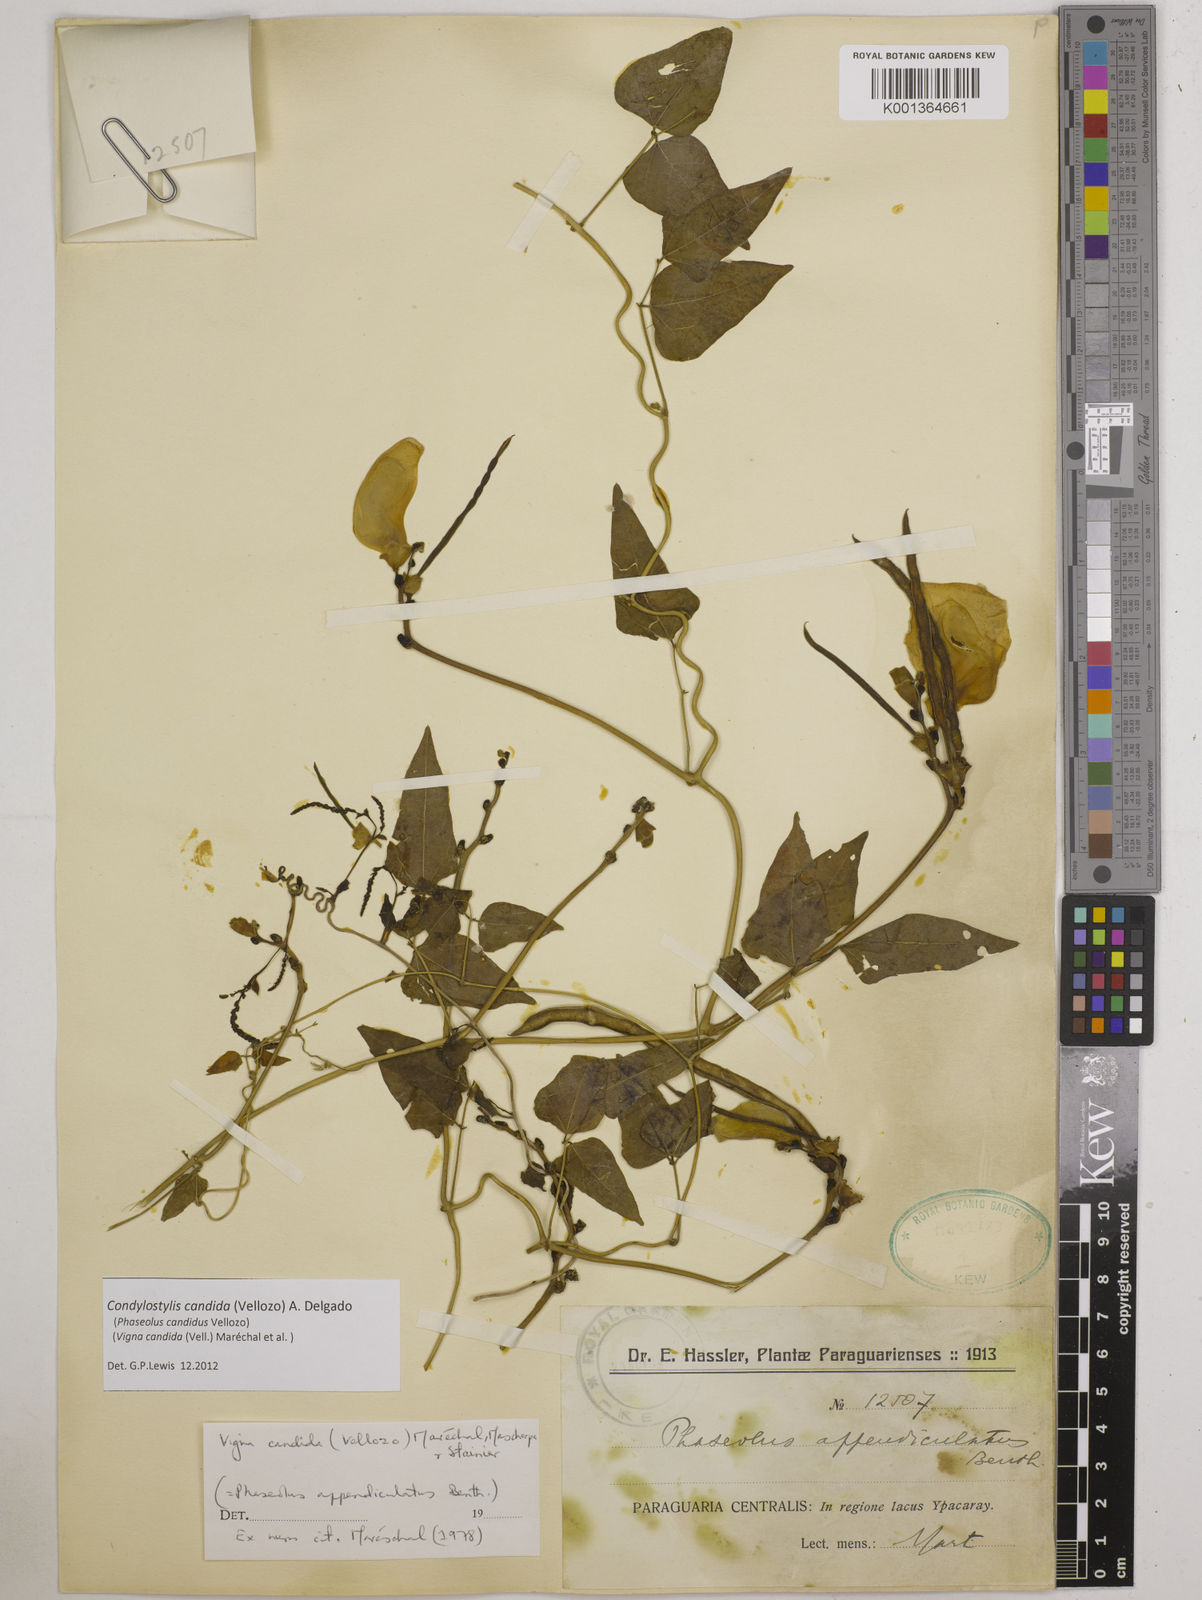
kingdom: Plantae
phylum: Tracheophyta
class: Magnoliopsida
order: Fabales
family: Fabaceae
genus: Condylostylis
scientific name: Condylostylis candida
